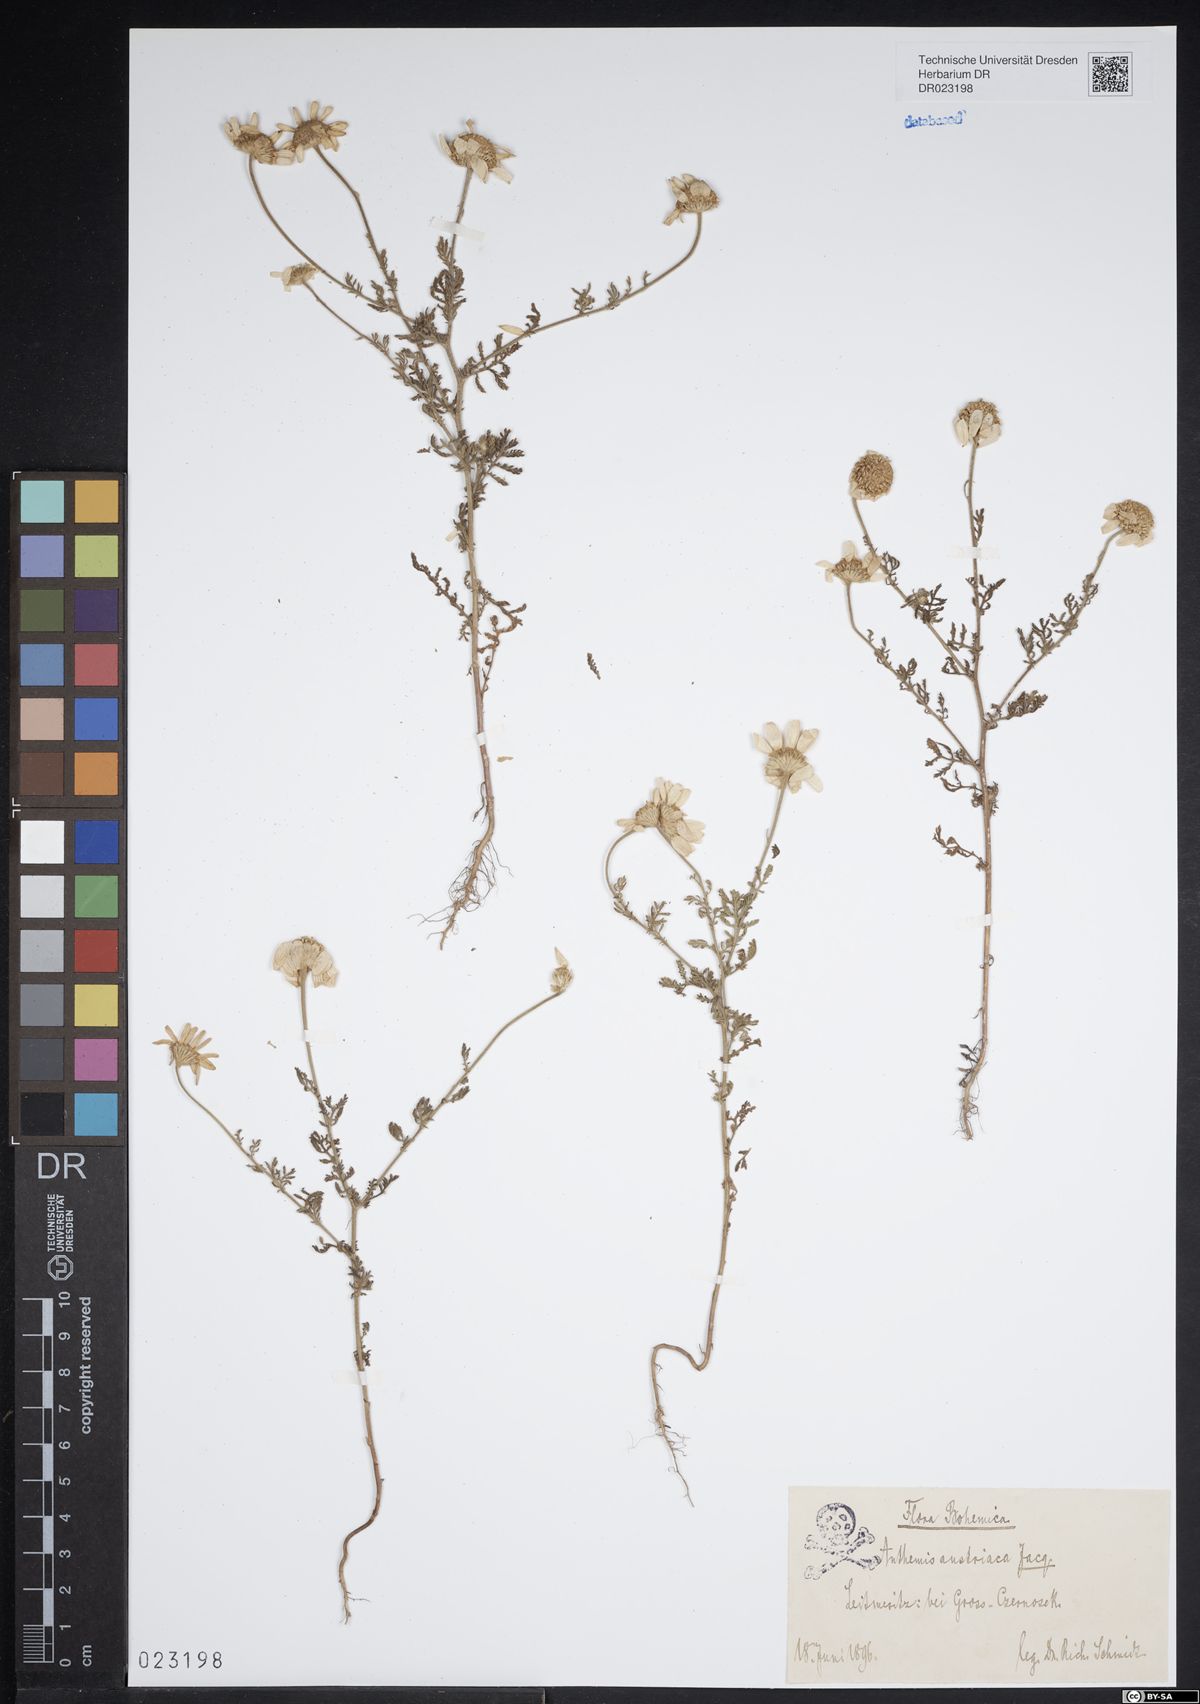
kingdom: Plantae
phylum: Tracheophyta
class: Magnoliopsida
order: Asterales
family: Asteraceae
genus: Cota
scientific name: Cota austriaca
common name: Austrian chamomile
